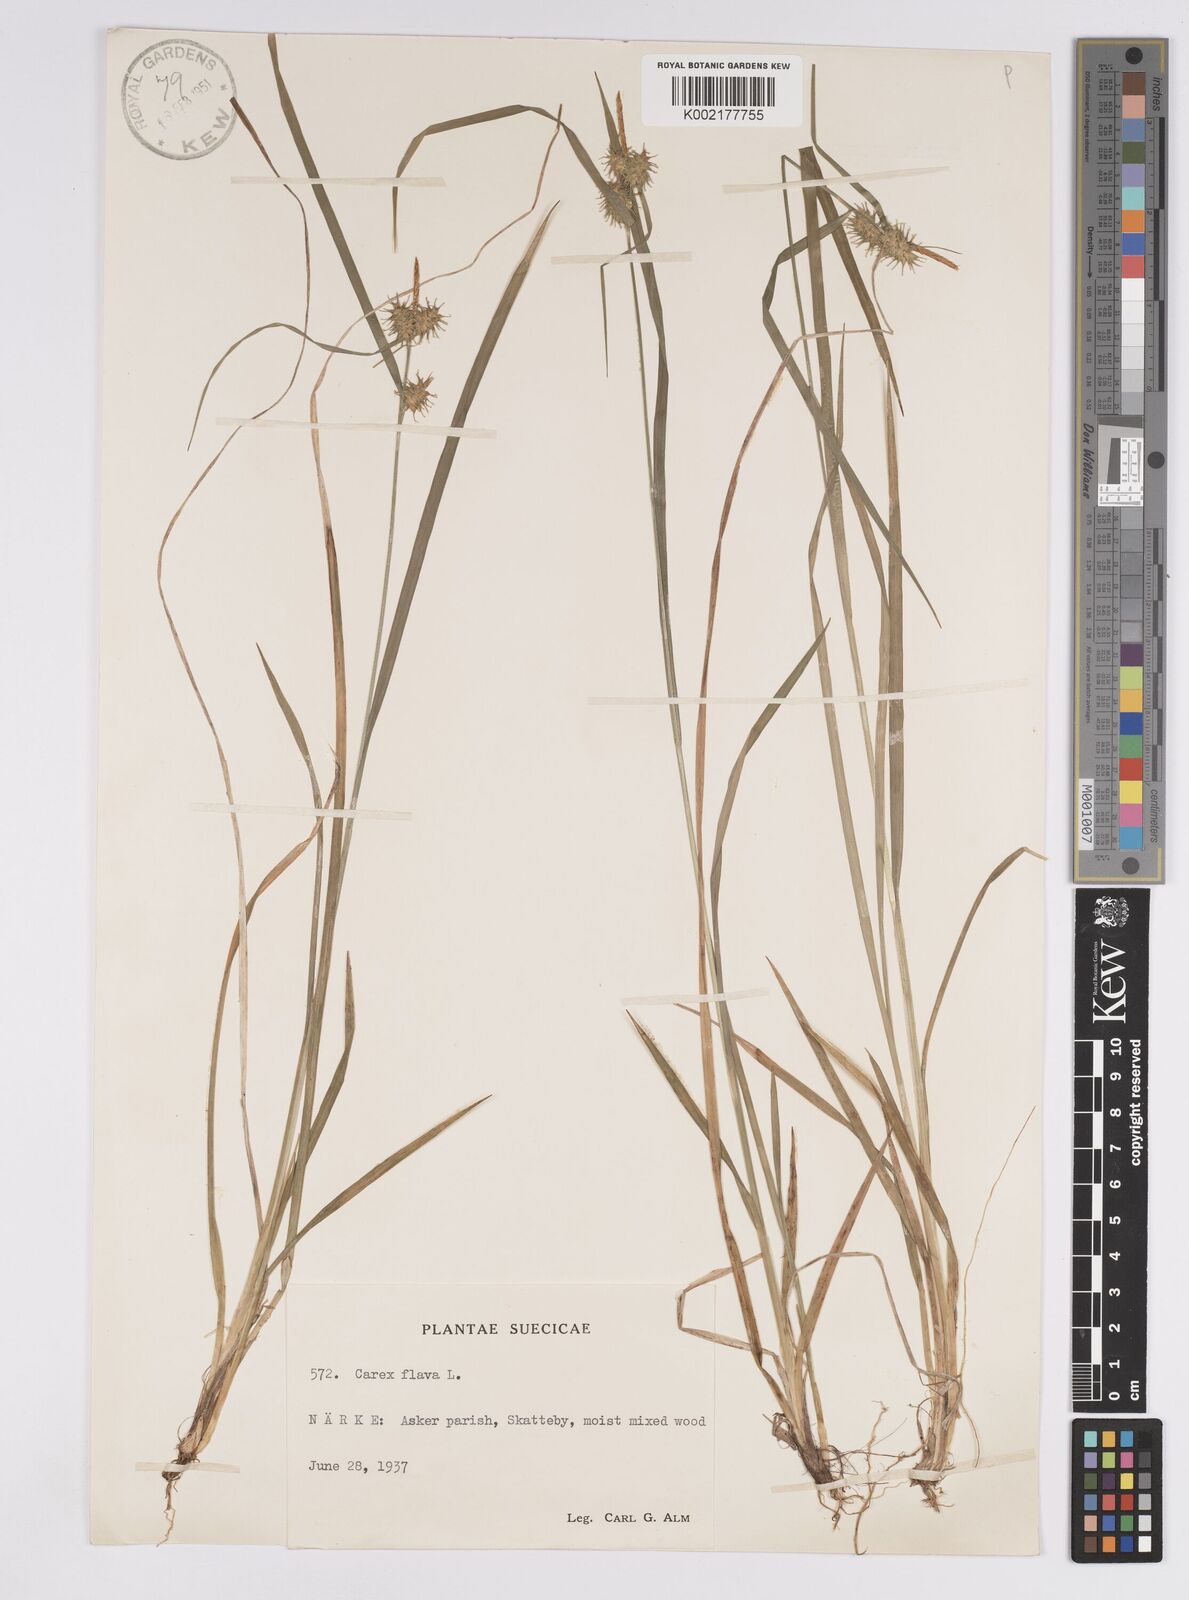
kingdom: Plantae
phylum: Tracheophyta
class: Liliopsida
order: Poales
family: Cyperaceae
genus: Carex
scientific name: Carex flava
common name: Large yellow-sedge
